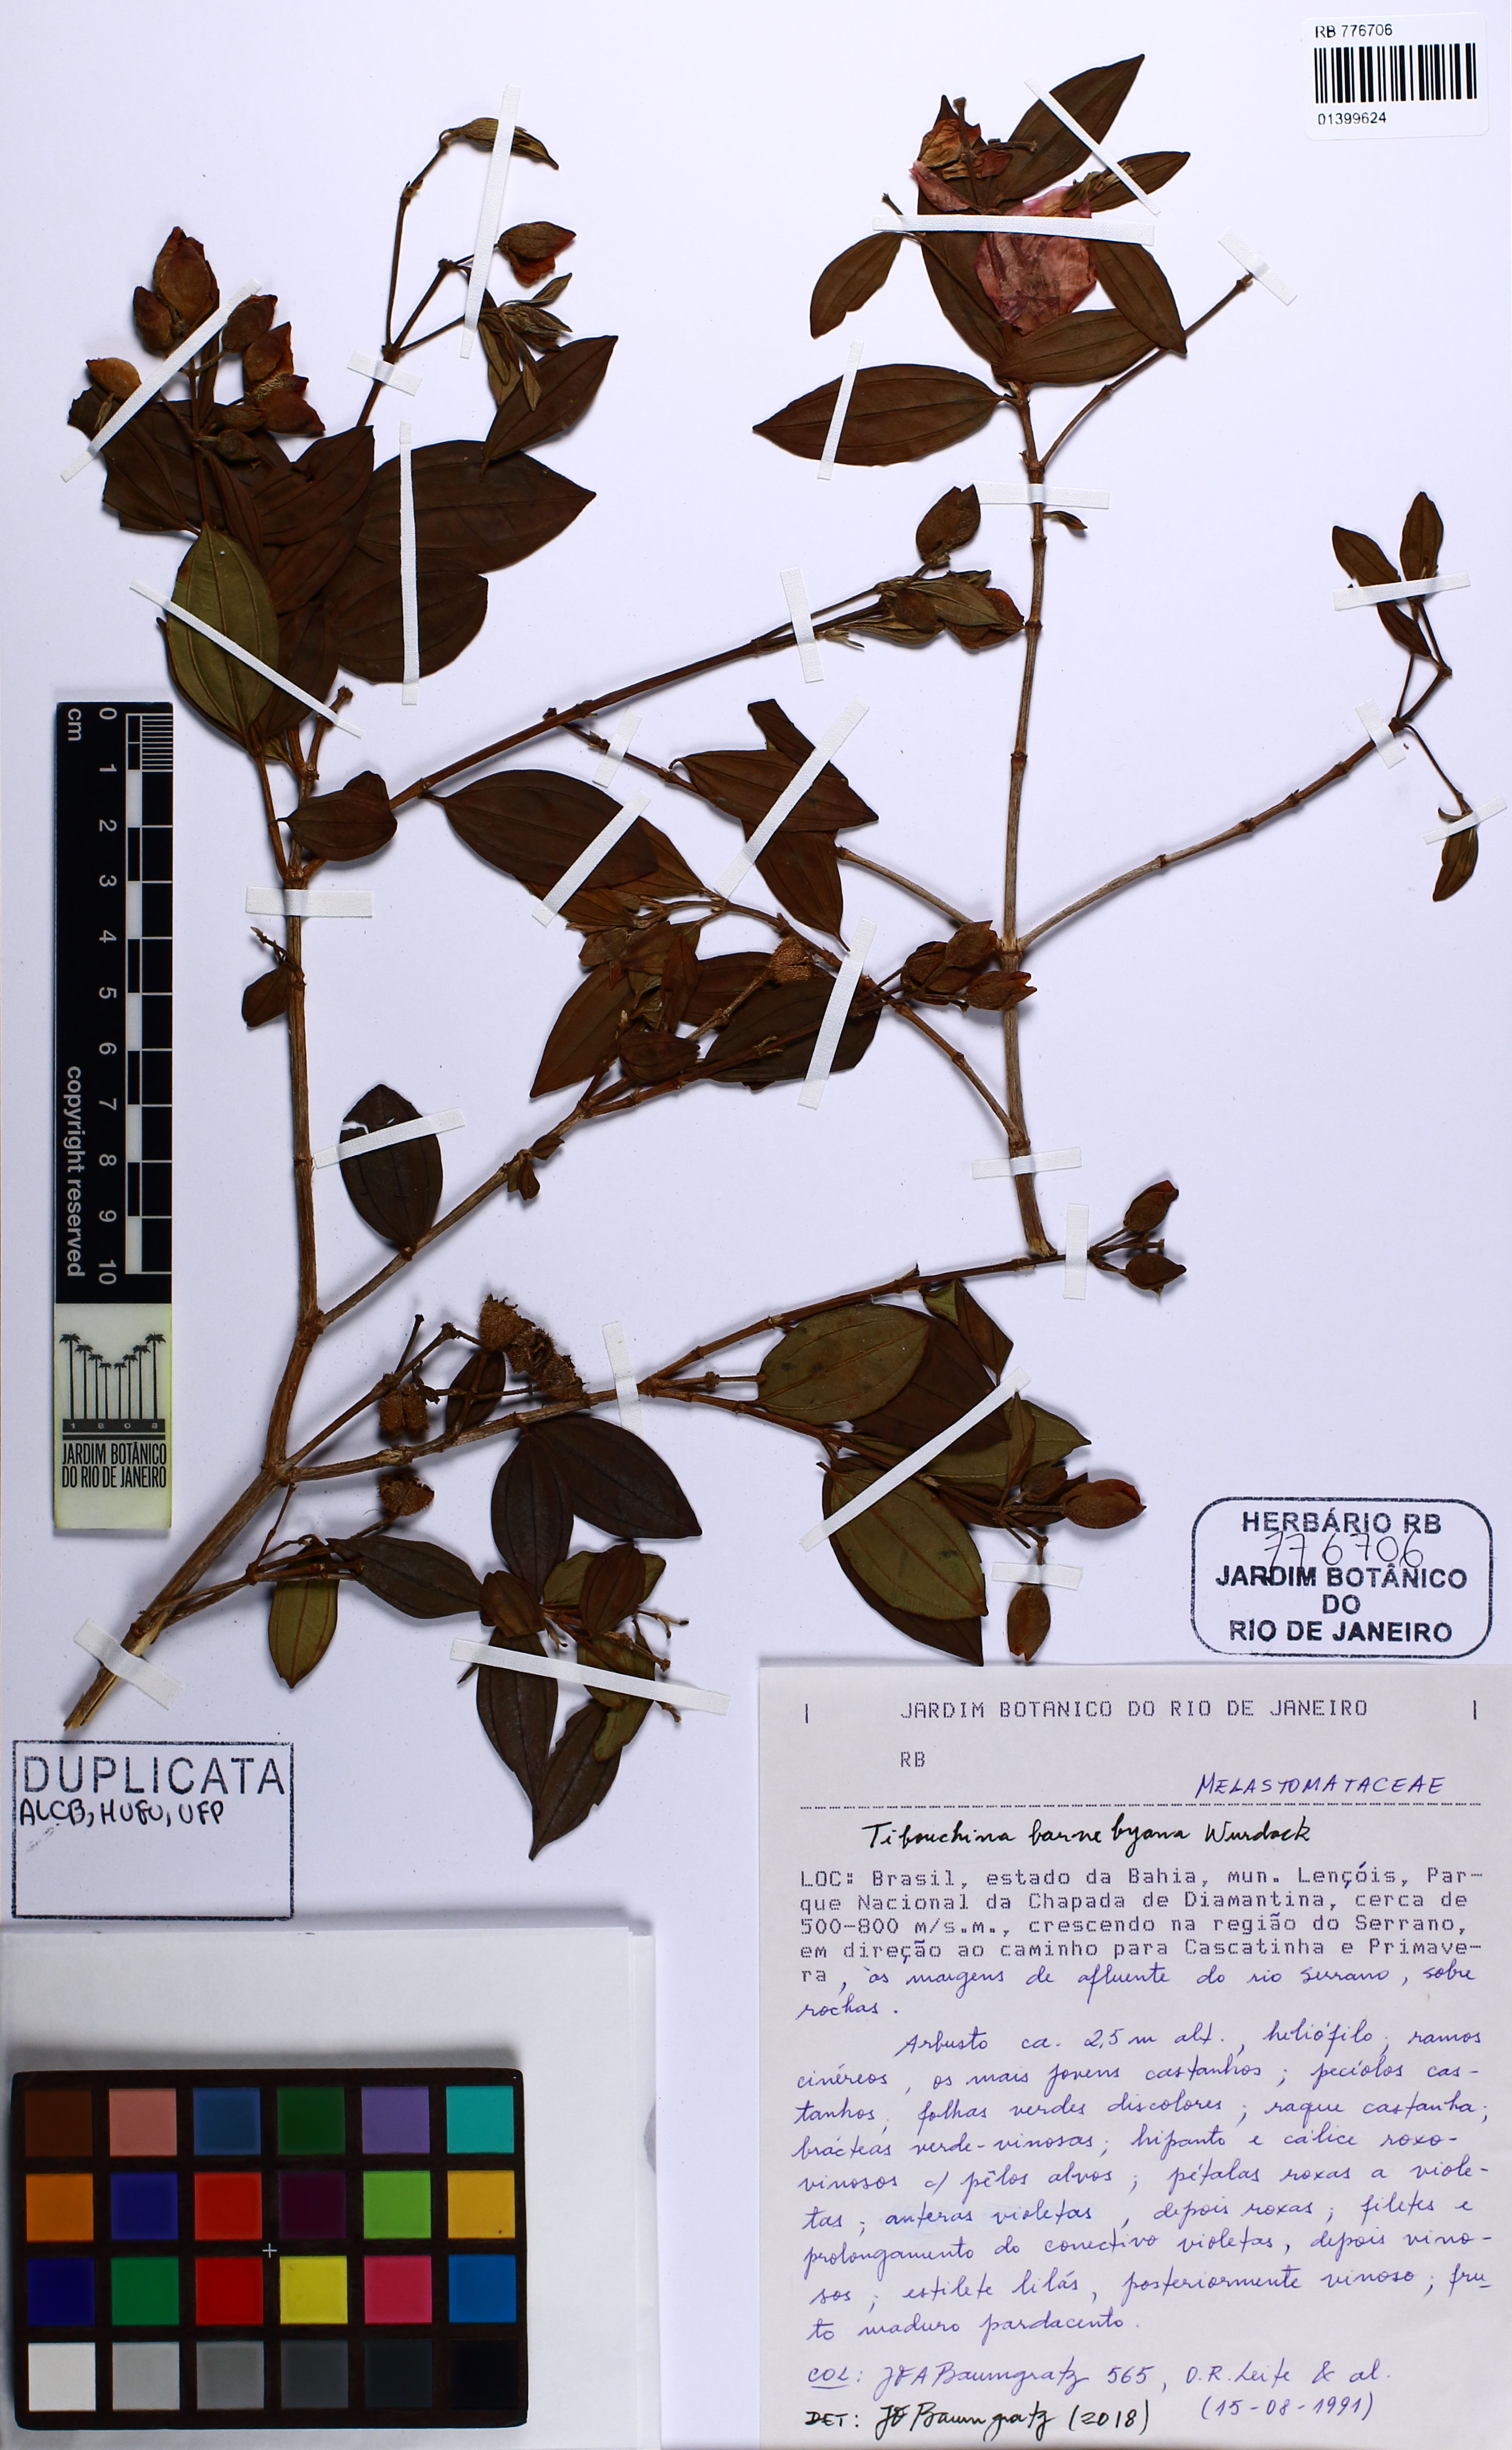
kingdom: Plantae
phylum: Tracheophyta
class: Magnoliopsida
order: Myrtales
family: Melastomataceae
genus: Pleroma
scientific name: Pleroma barnebyanum
